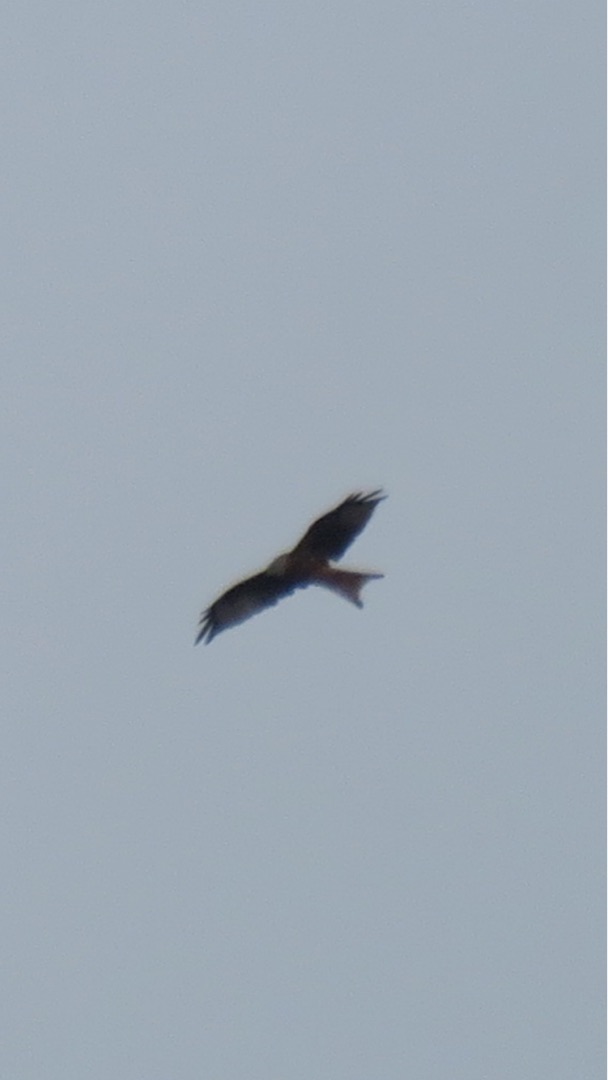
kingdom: Animalia
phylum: Chordata
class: Aves
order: Accipitriformes
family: Accipitridae
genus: Milvus
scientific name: Milvus milvus
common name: Rød glente
